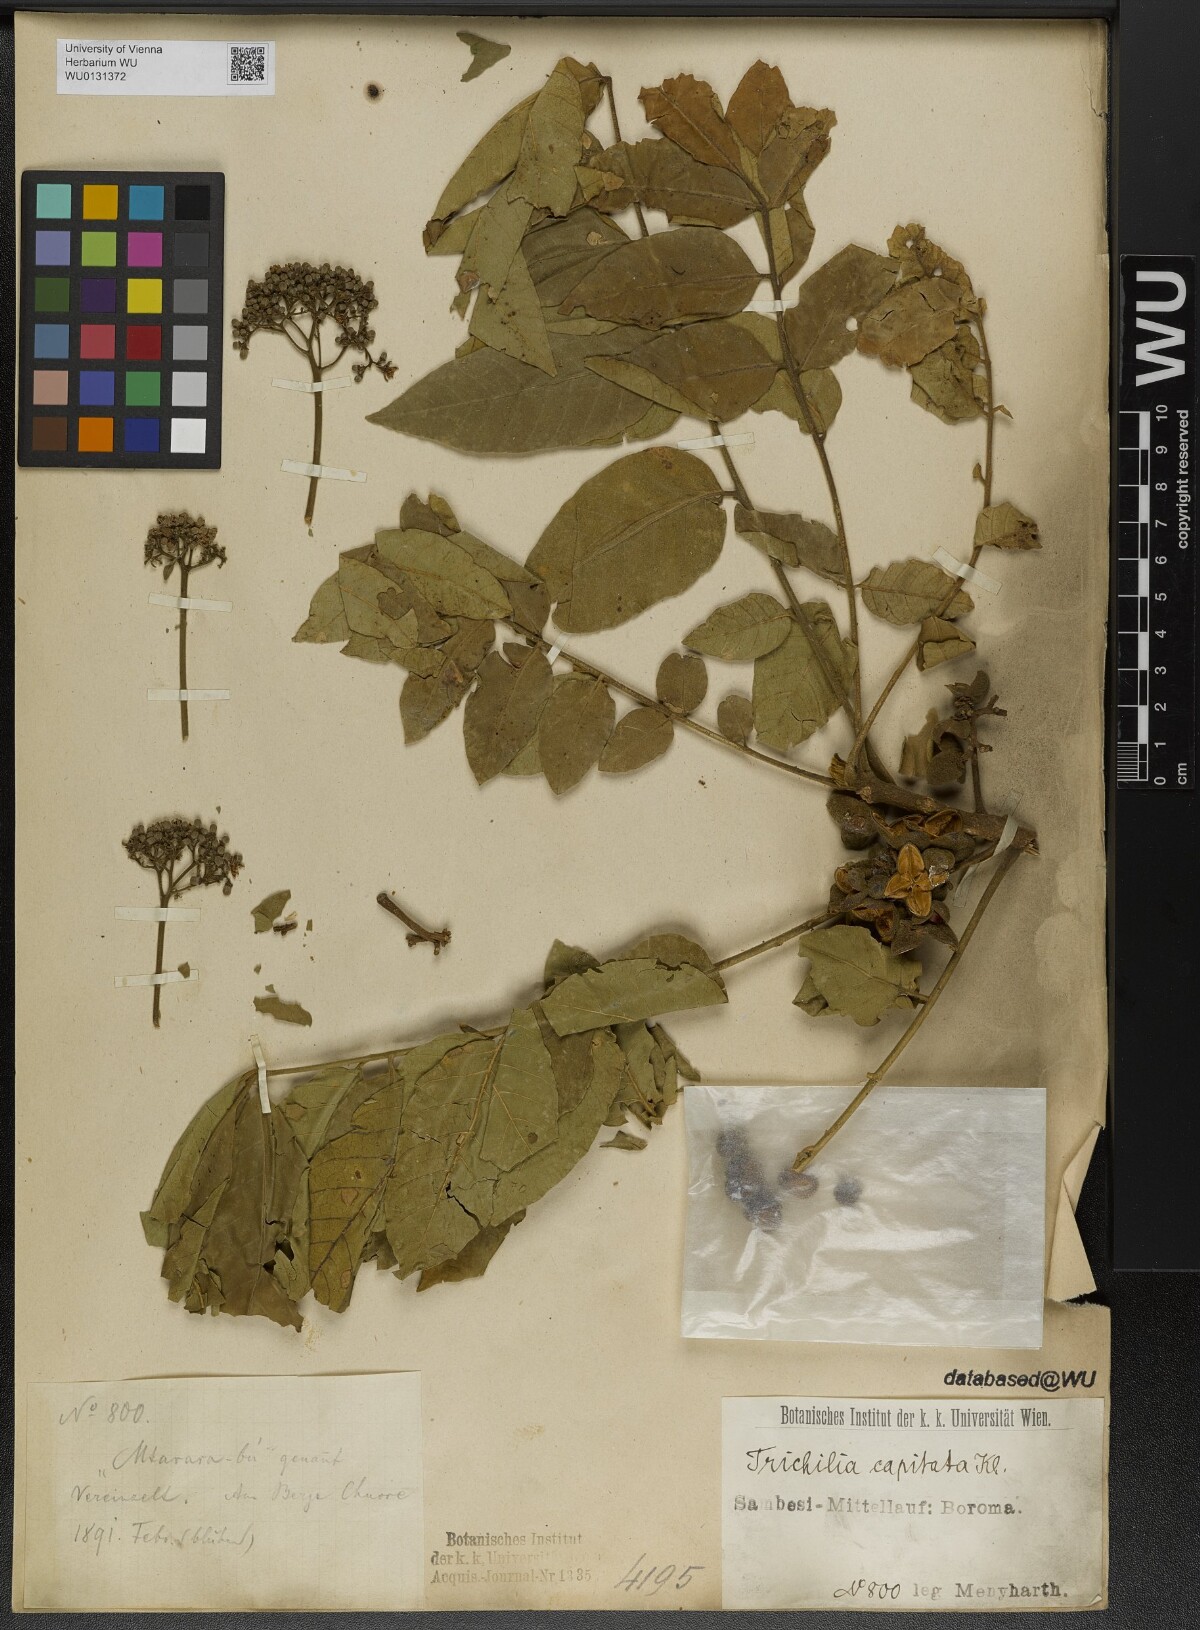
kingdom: Plantae
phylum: Tracheophyta
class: Magnoliopsida
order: Sapindales
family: Meliaceae
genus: Trichilia
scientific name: Trichilia capitata
